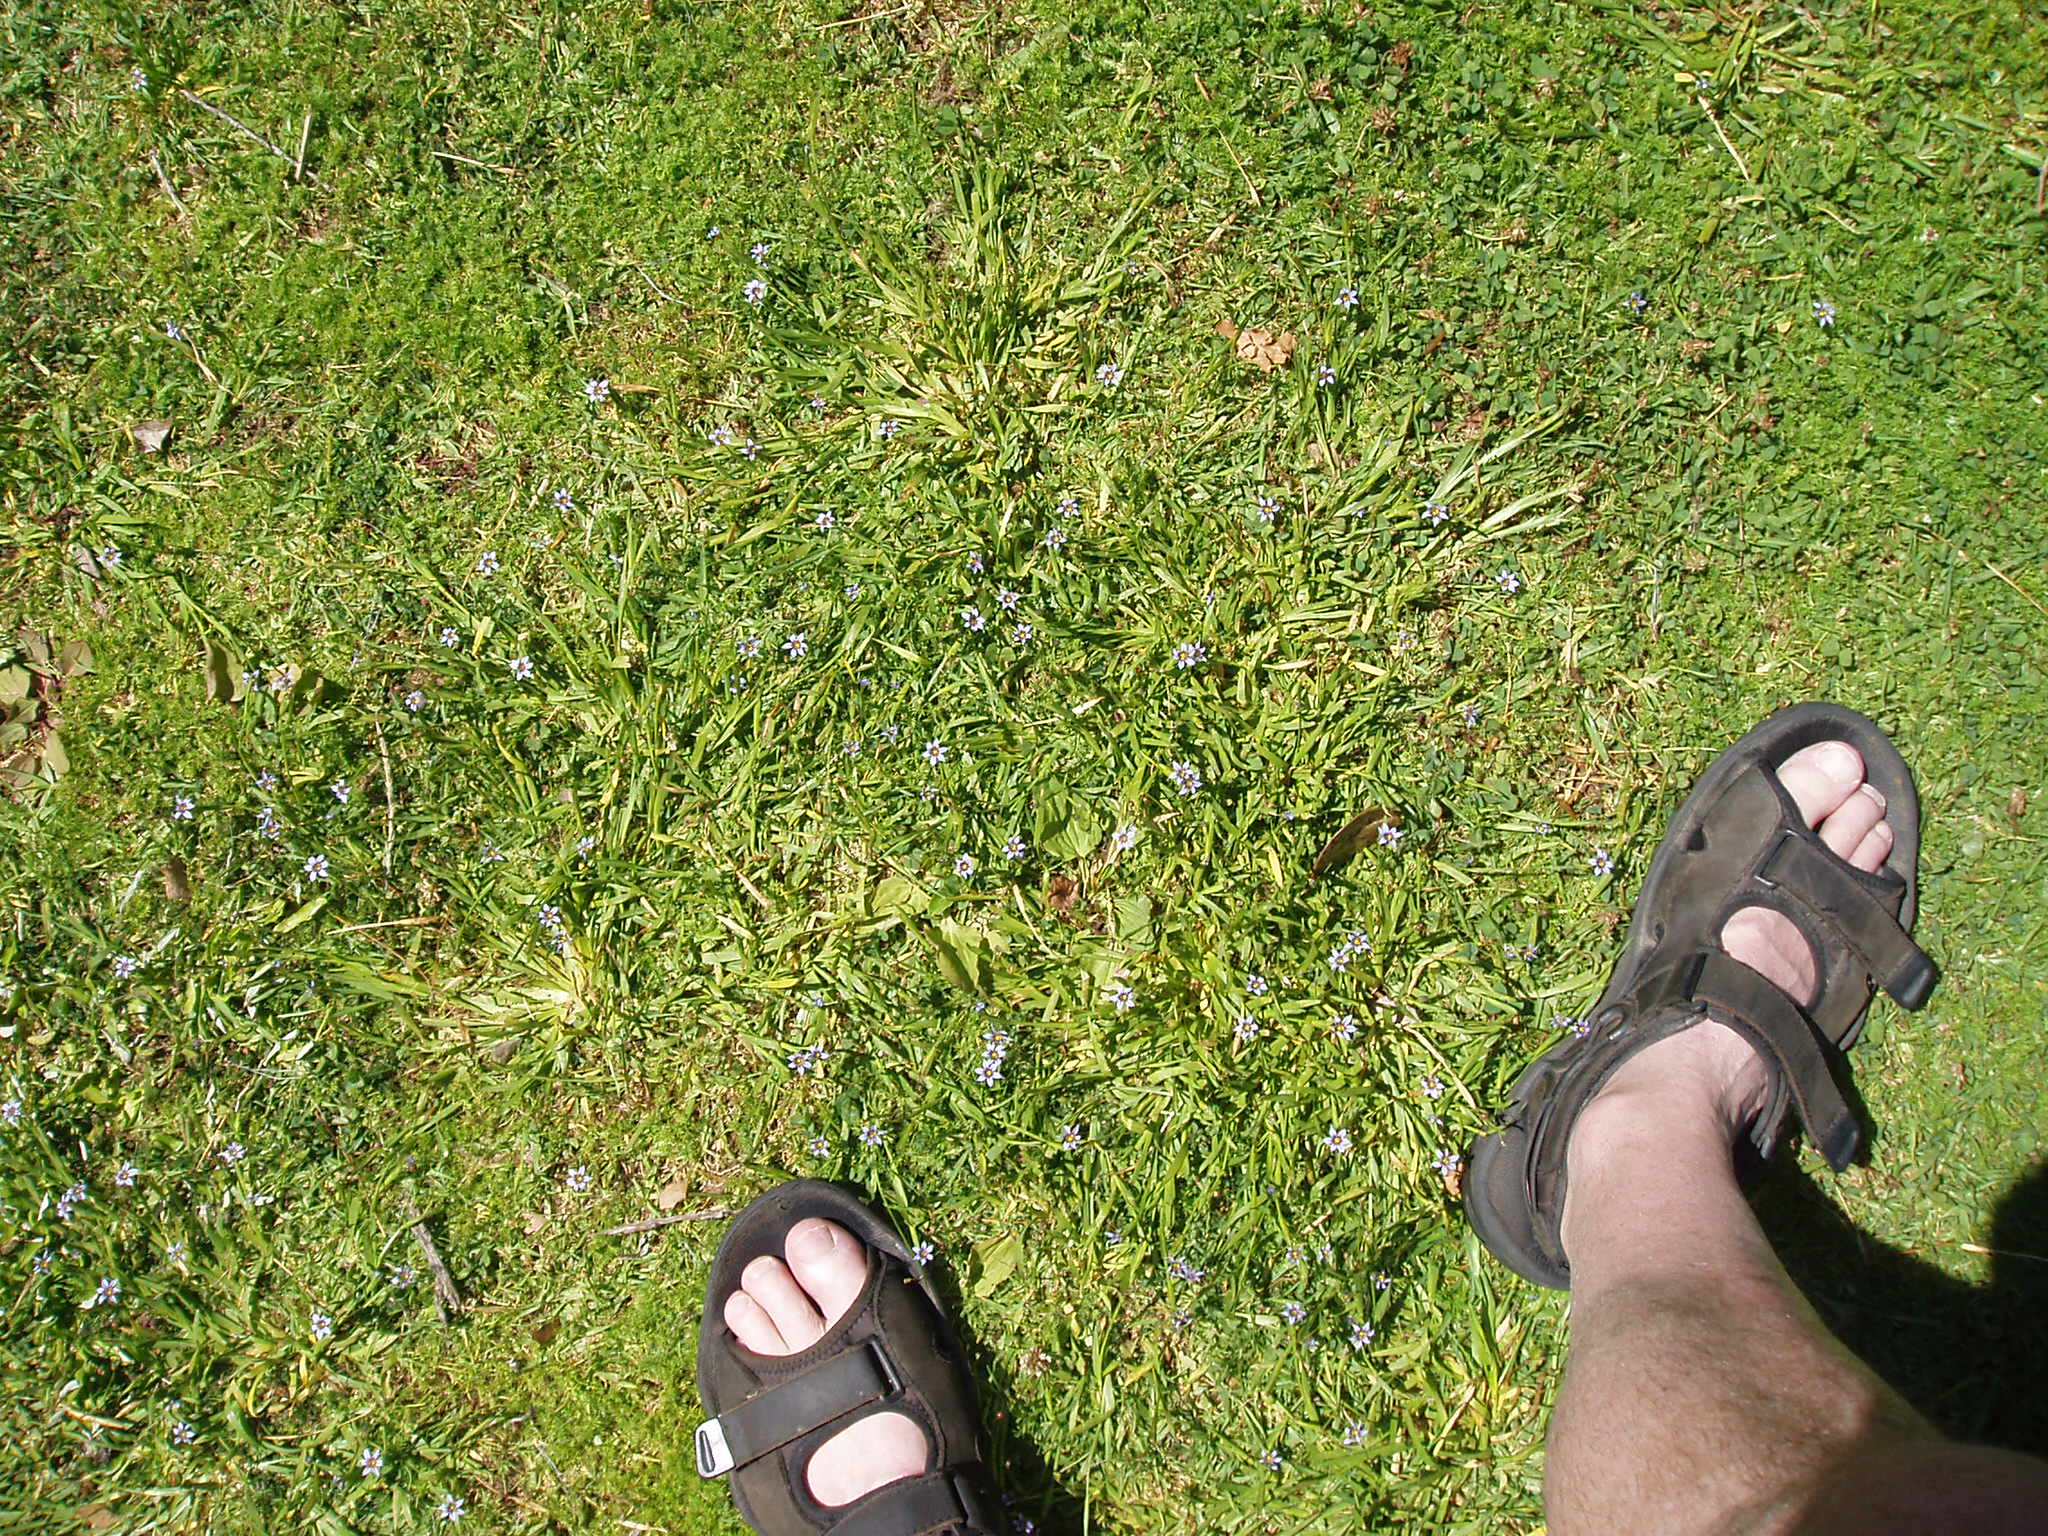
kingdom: Plantae
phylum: Tracheophyta
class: Liliopsida
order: Asparagales
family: Iridaceae
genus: Sisyrinchium
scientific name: Sisyrinchium rosulatum
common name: Annual blue-eyed grass
